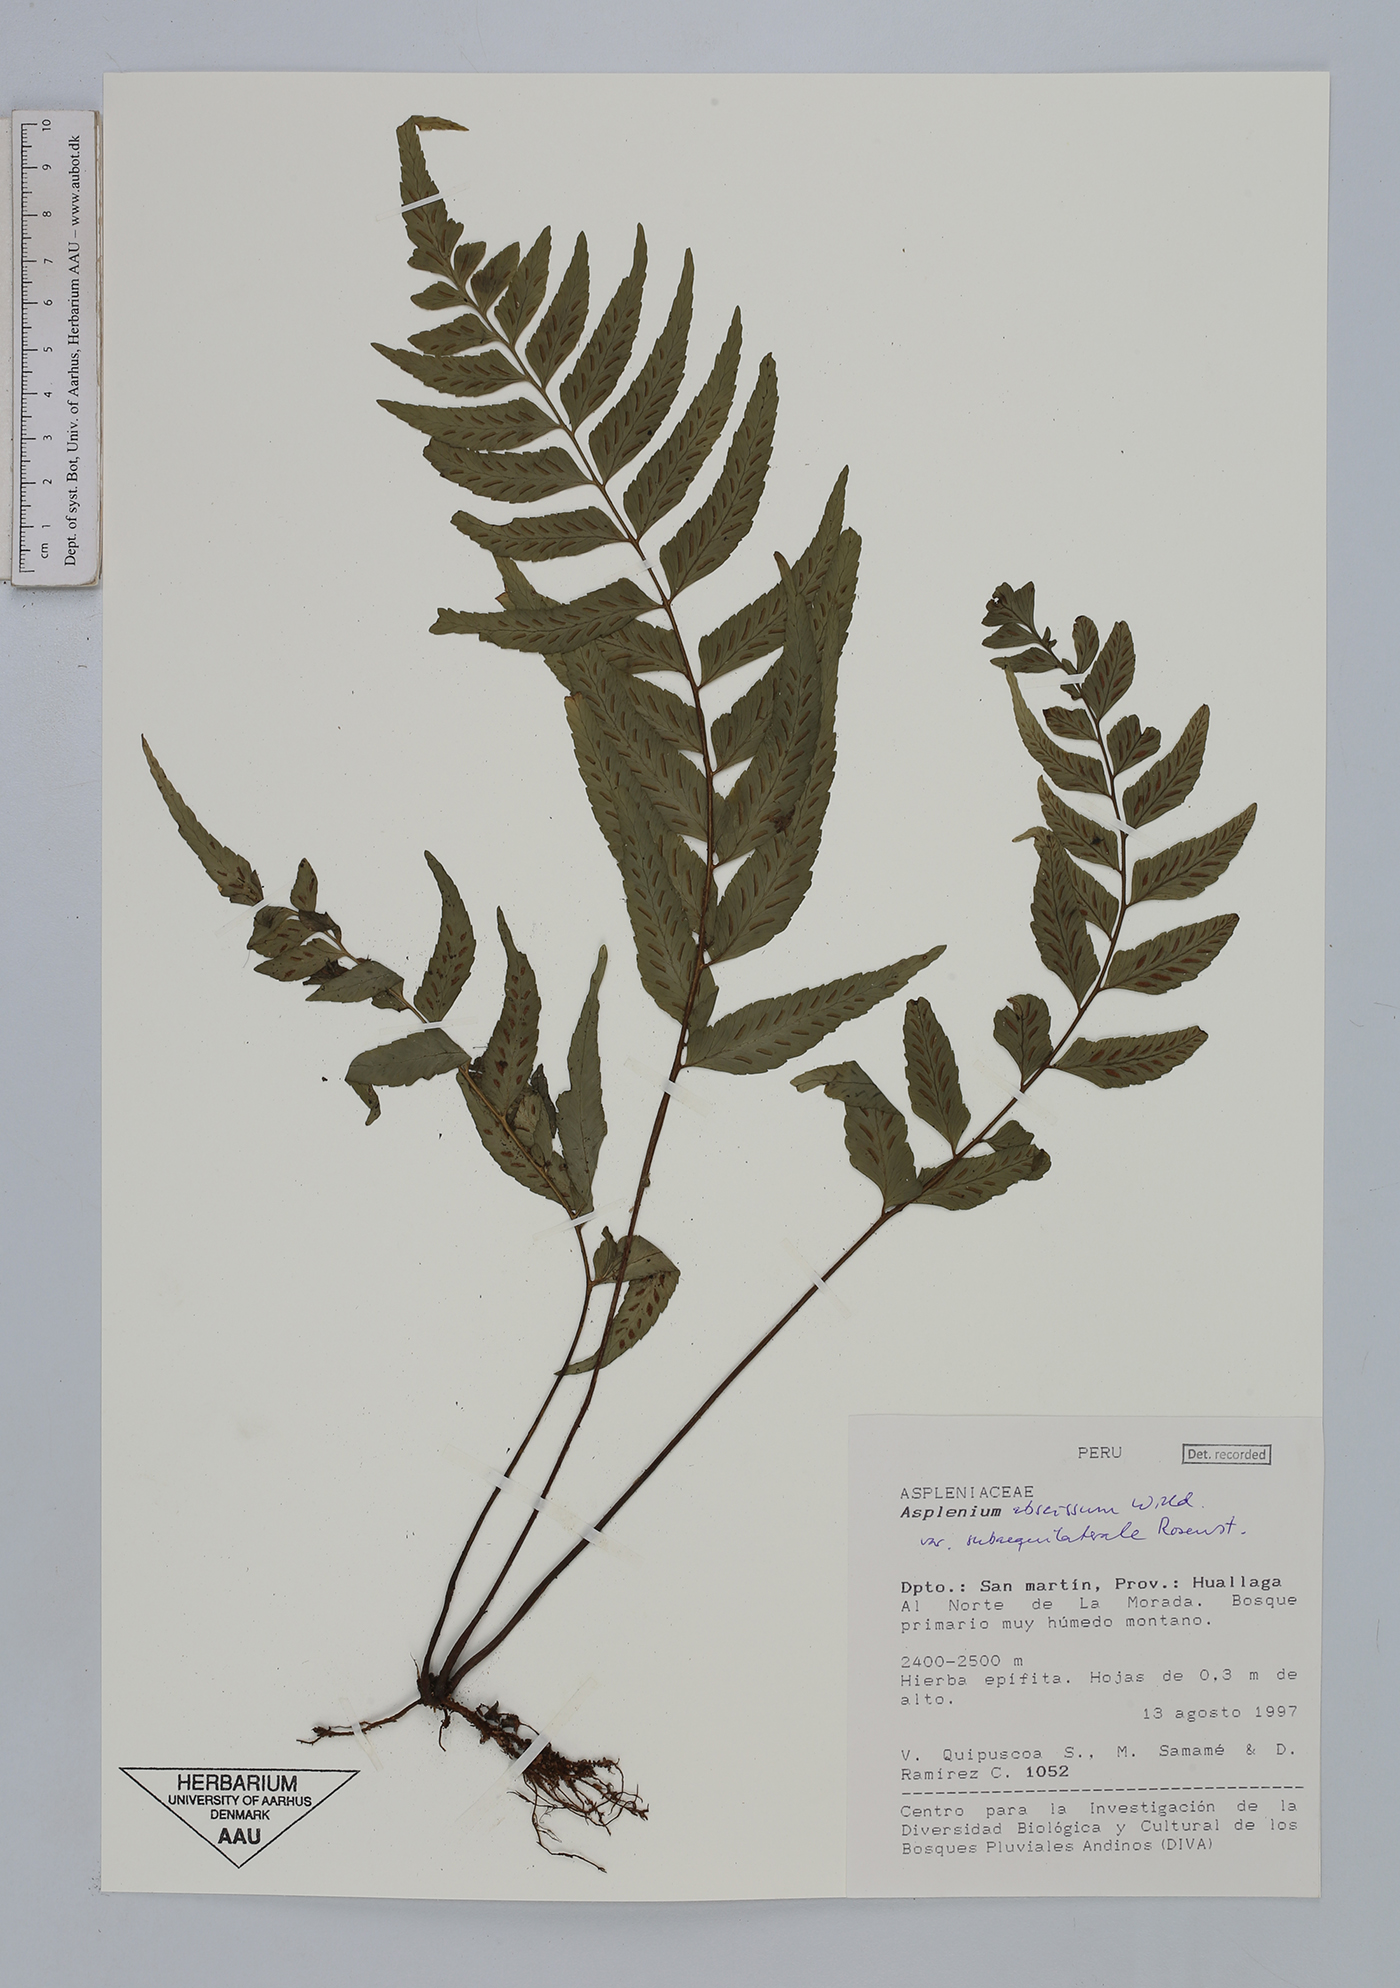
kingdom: Plantae
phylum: Tracheophyta
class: Polypodiopsida
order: Polypodiales
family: Aspleniaceae
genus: Asplenium
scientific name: Asplenium abscissum
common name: Cutleaf spleenwort
